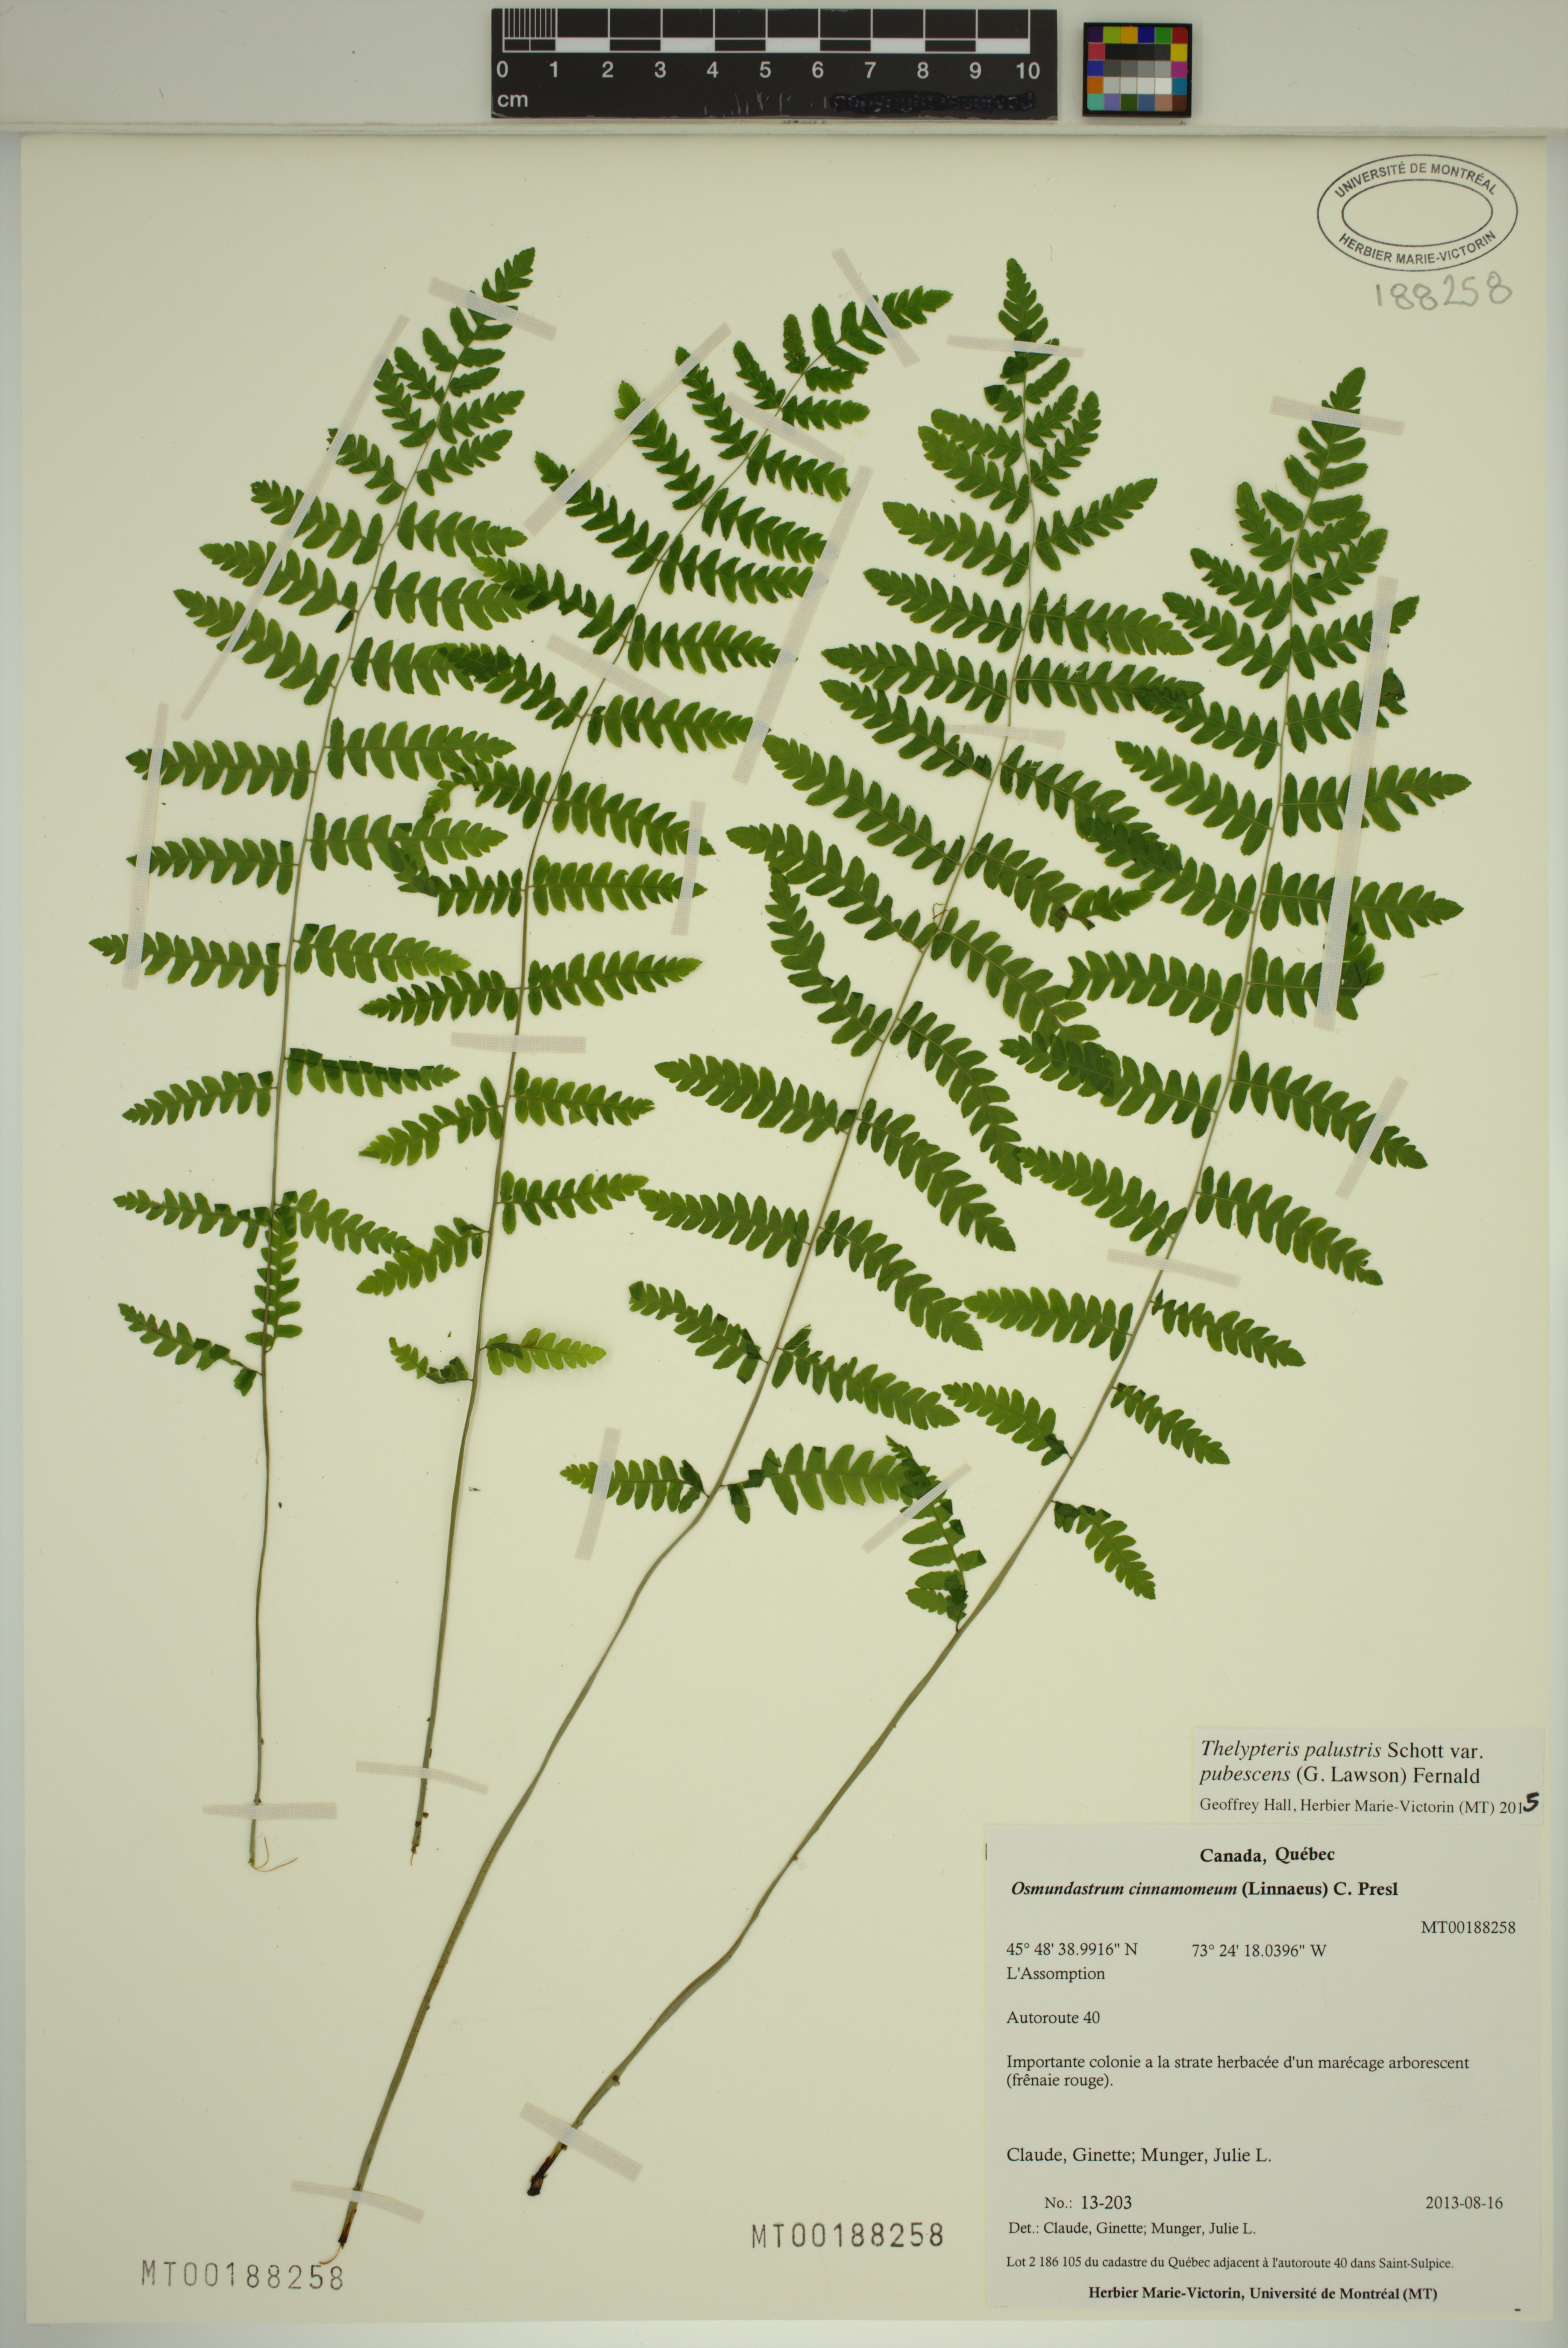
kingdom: Plantae
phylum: Tracheophyta
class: Polypodiopsida
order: Polypodiales
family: Thelypteridaceae
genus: Thelypteris
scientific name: Thelypteris palustris
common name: Marsh fern
